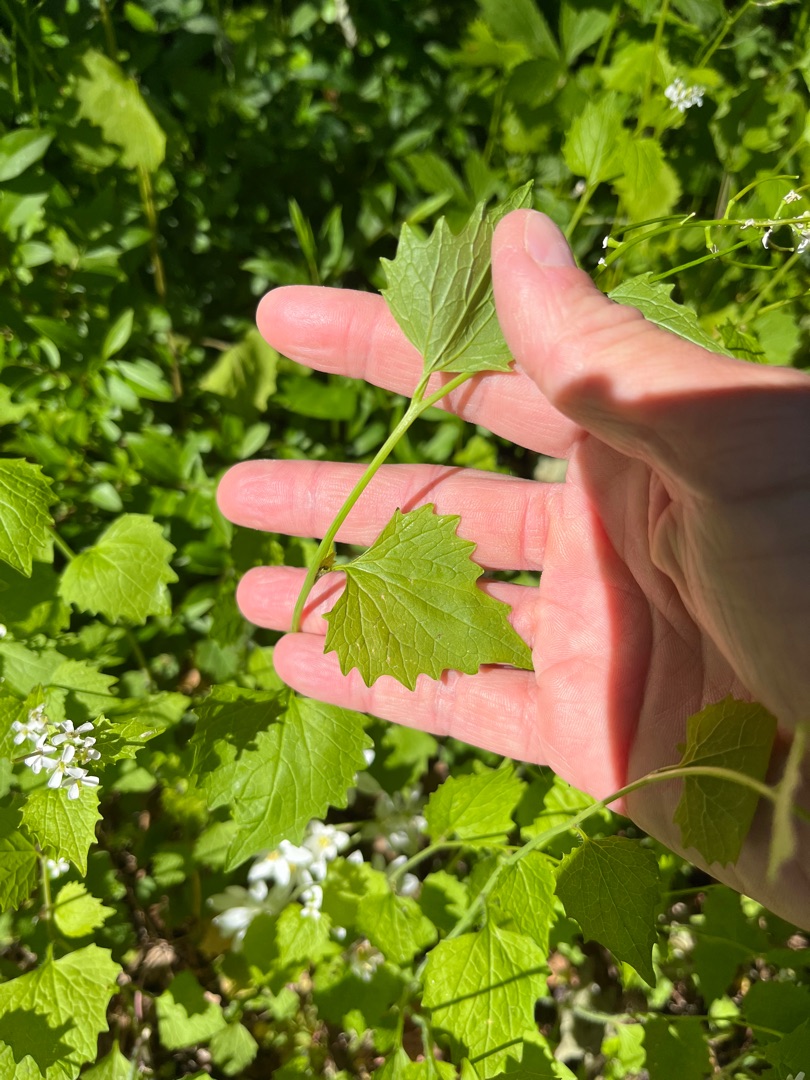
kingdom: Plantae
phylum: Tracheophyta
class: Magnoliopsida
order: Brassicales
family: Brassicaceae
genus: Alliaria
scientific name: Alliaria petiolata
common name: Løgkarse
